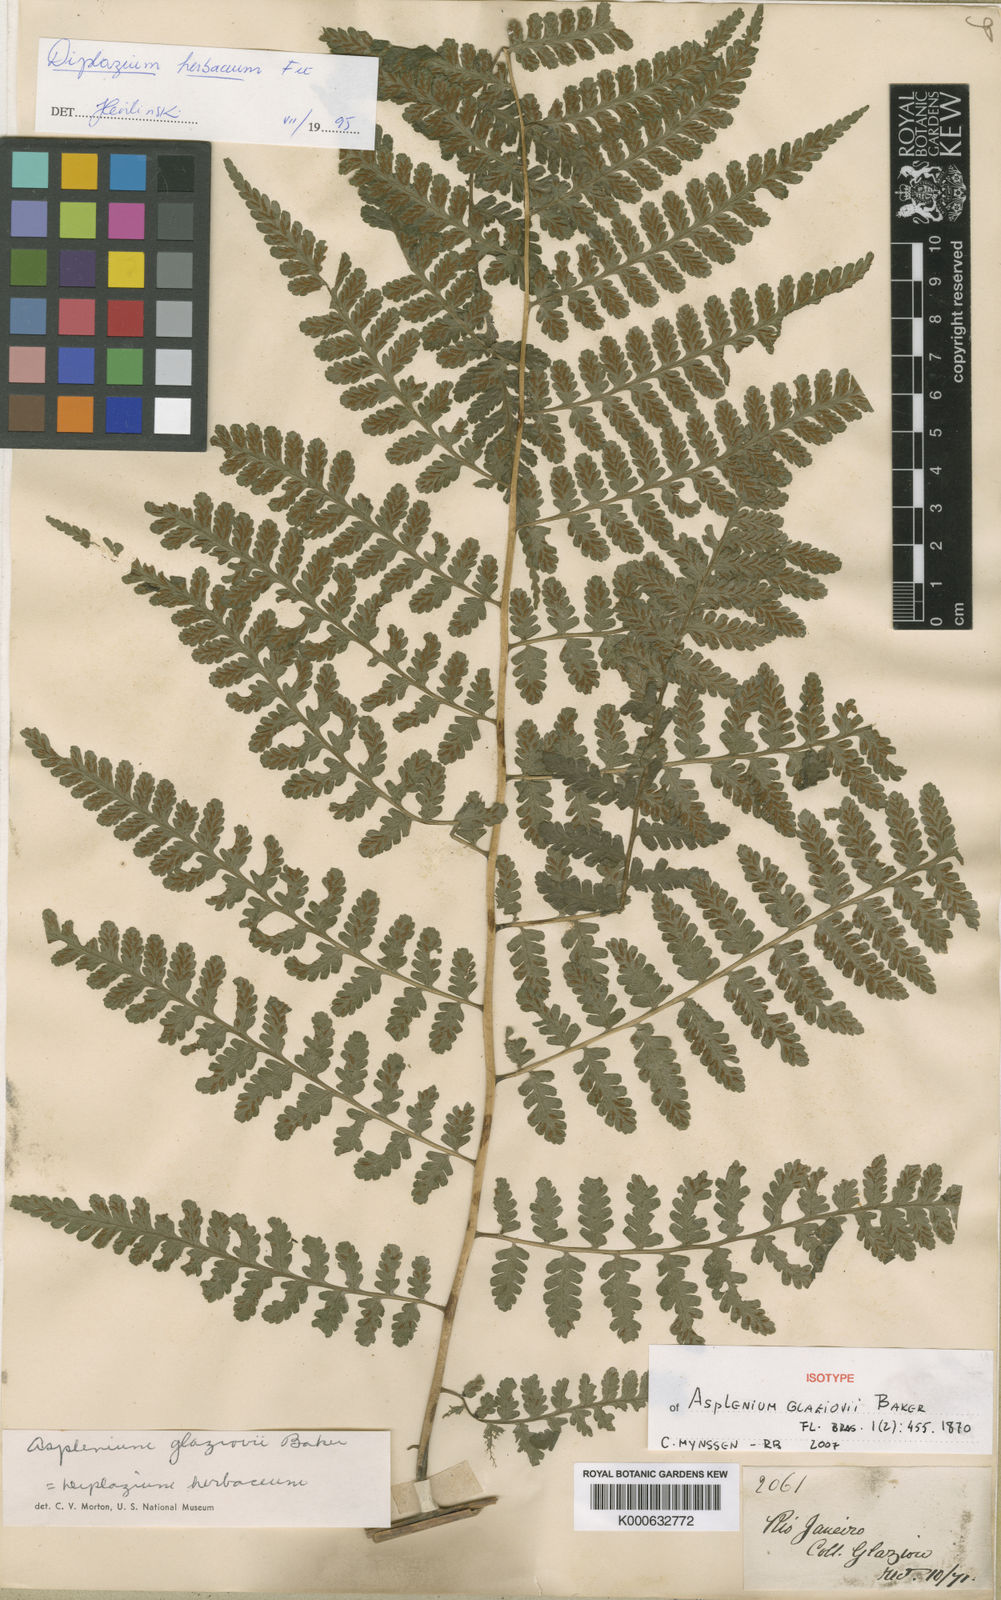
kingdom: Plantae
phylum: Tracheophyta
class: Polypodiopsida
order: Polypodiales
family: Athyriaceae
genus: Diplazium
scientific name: Diplazium
